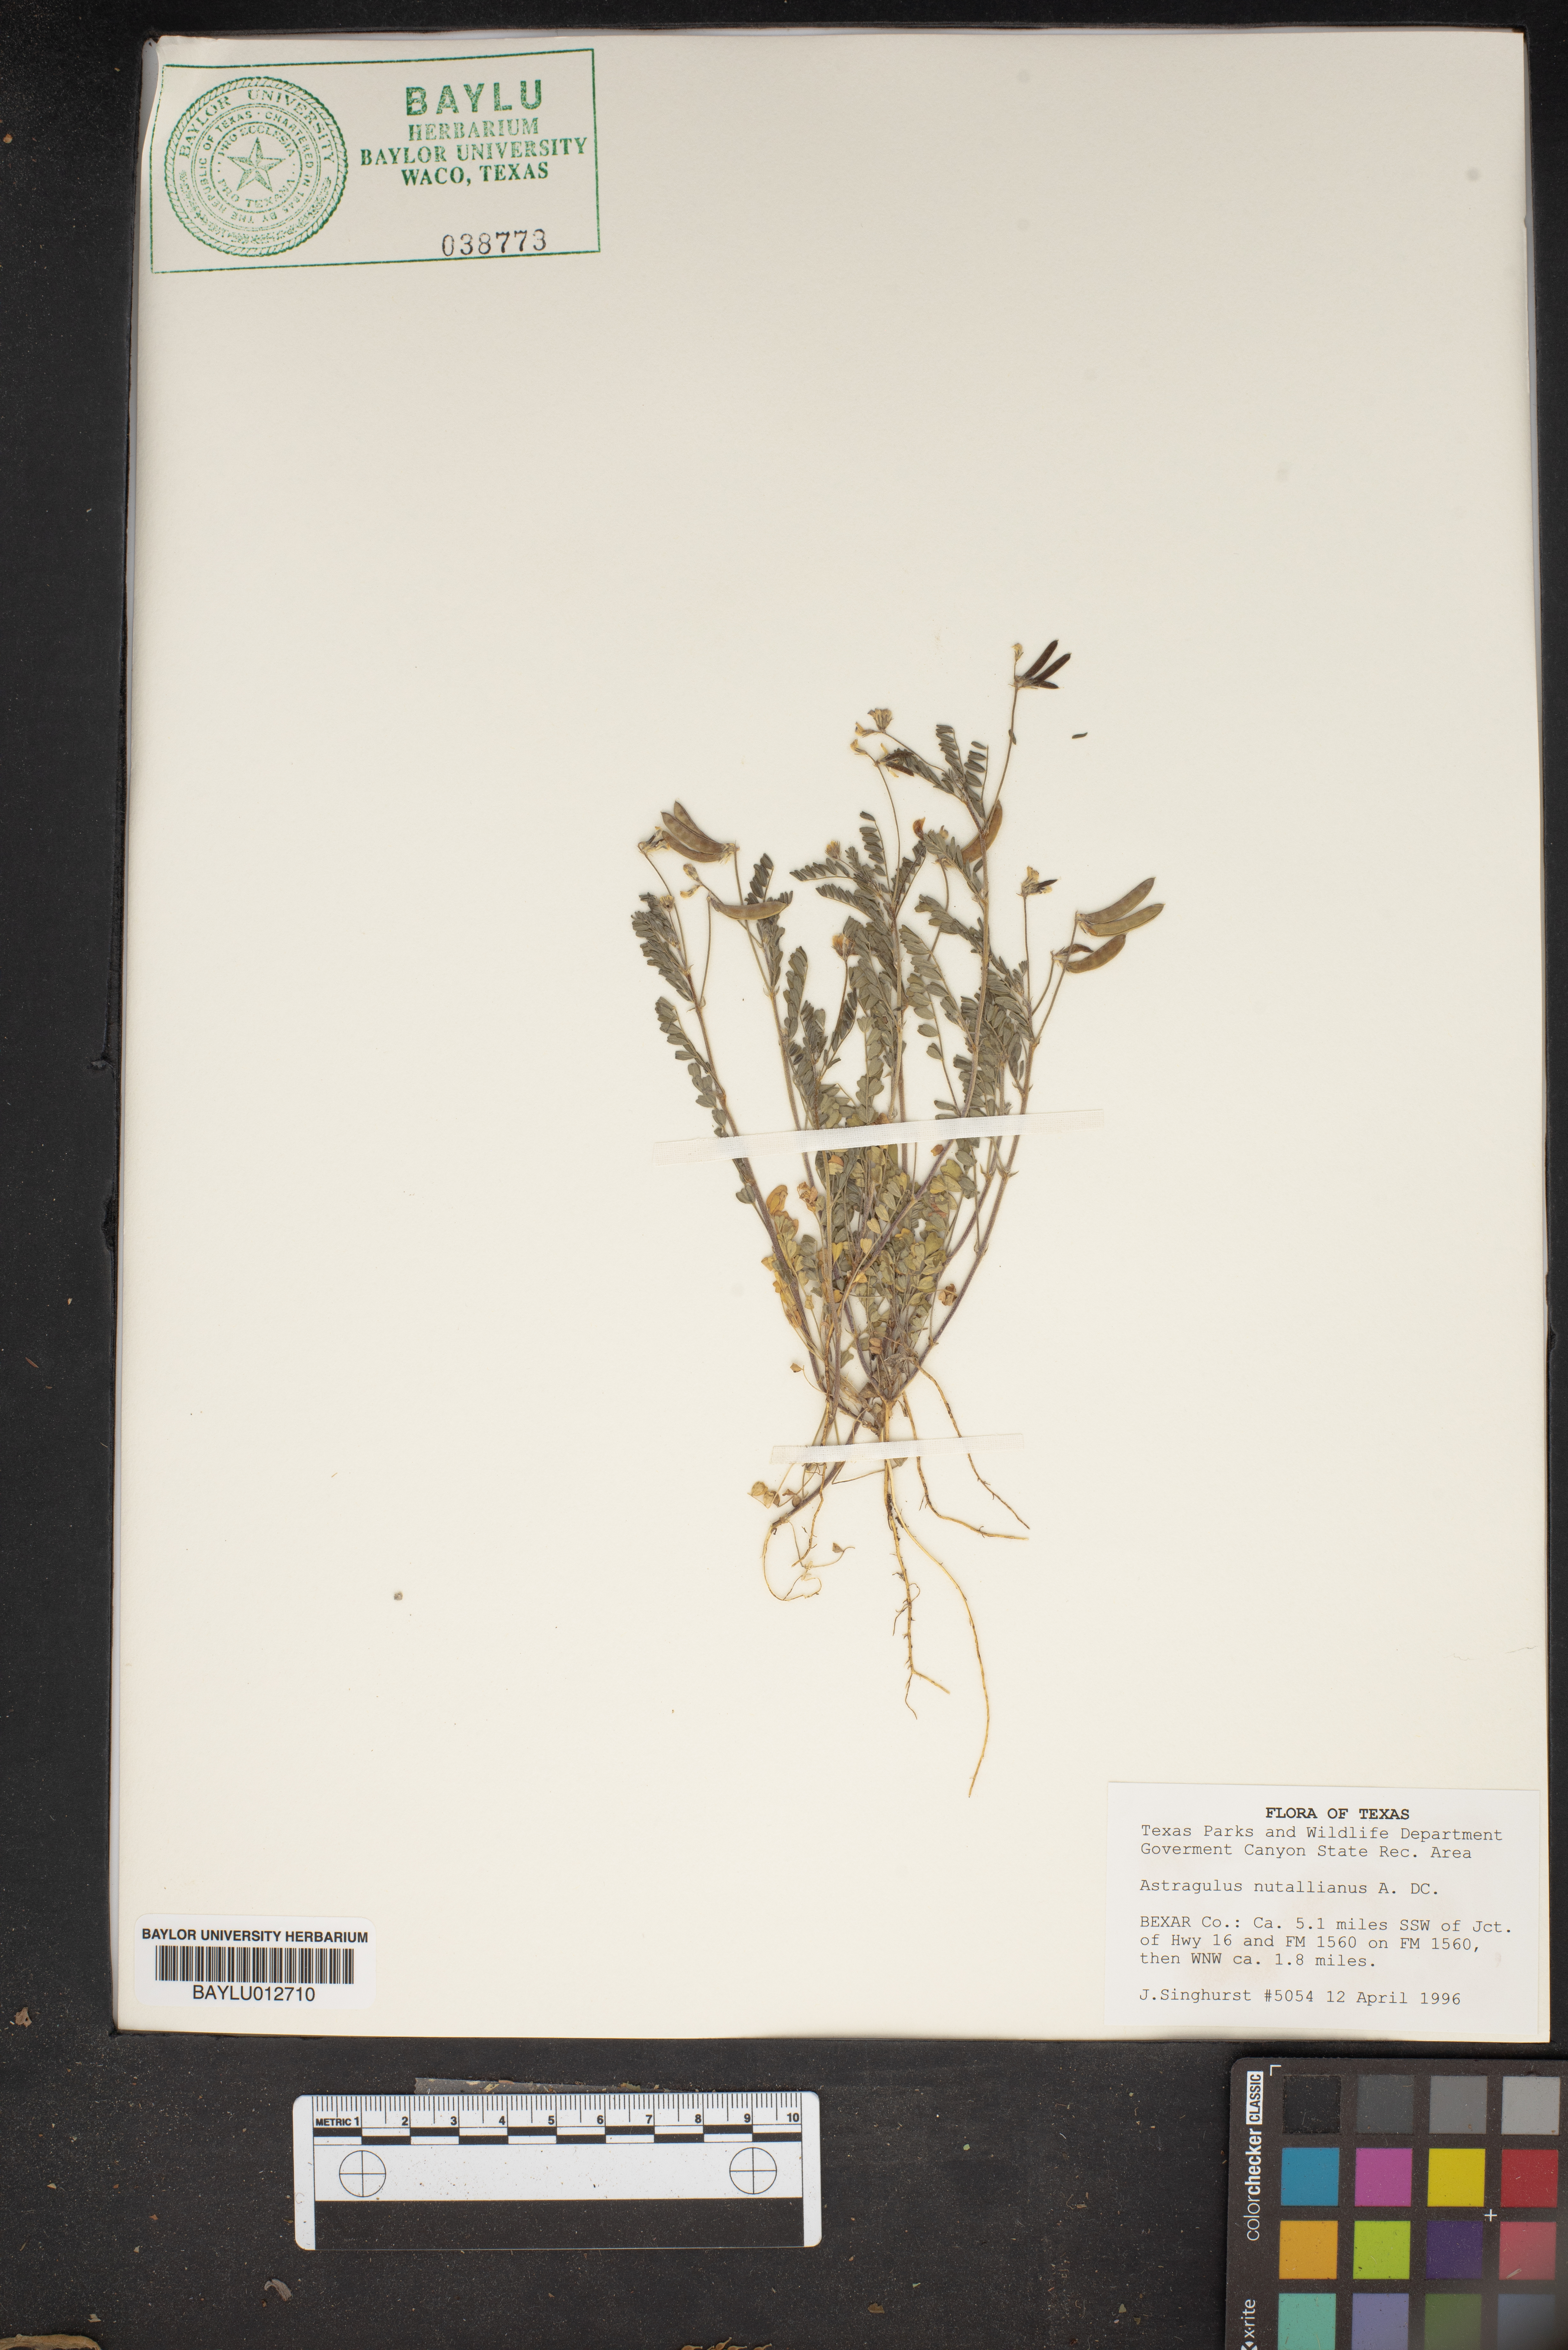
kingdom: Plantae
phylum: Tracheophyta
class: Magnoliopsida
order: Fabales
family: Fabaceae
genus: Astragalus
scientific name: Astragalus nuttallianus
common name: Smallflowered milkvetch
